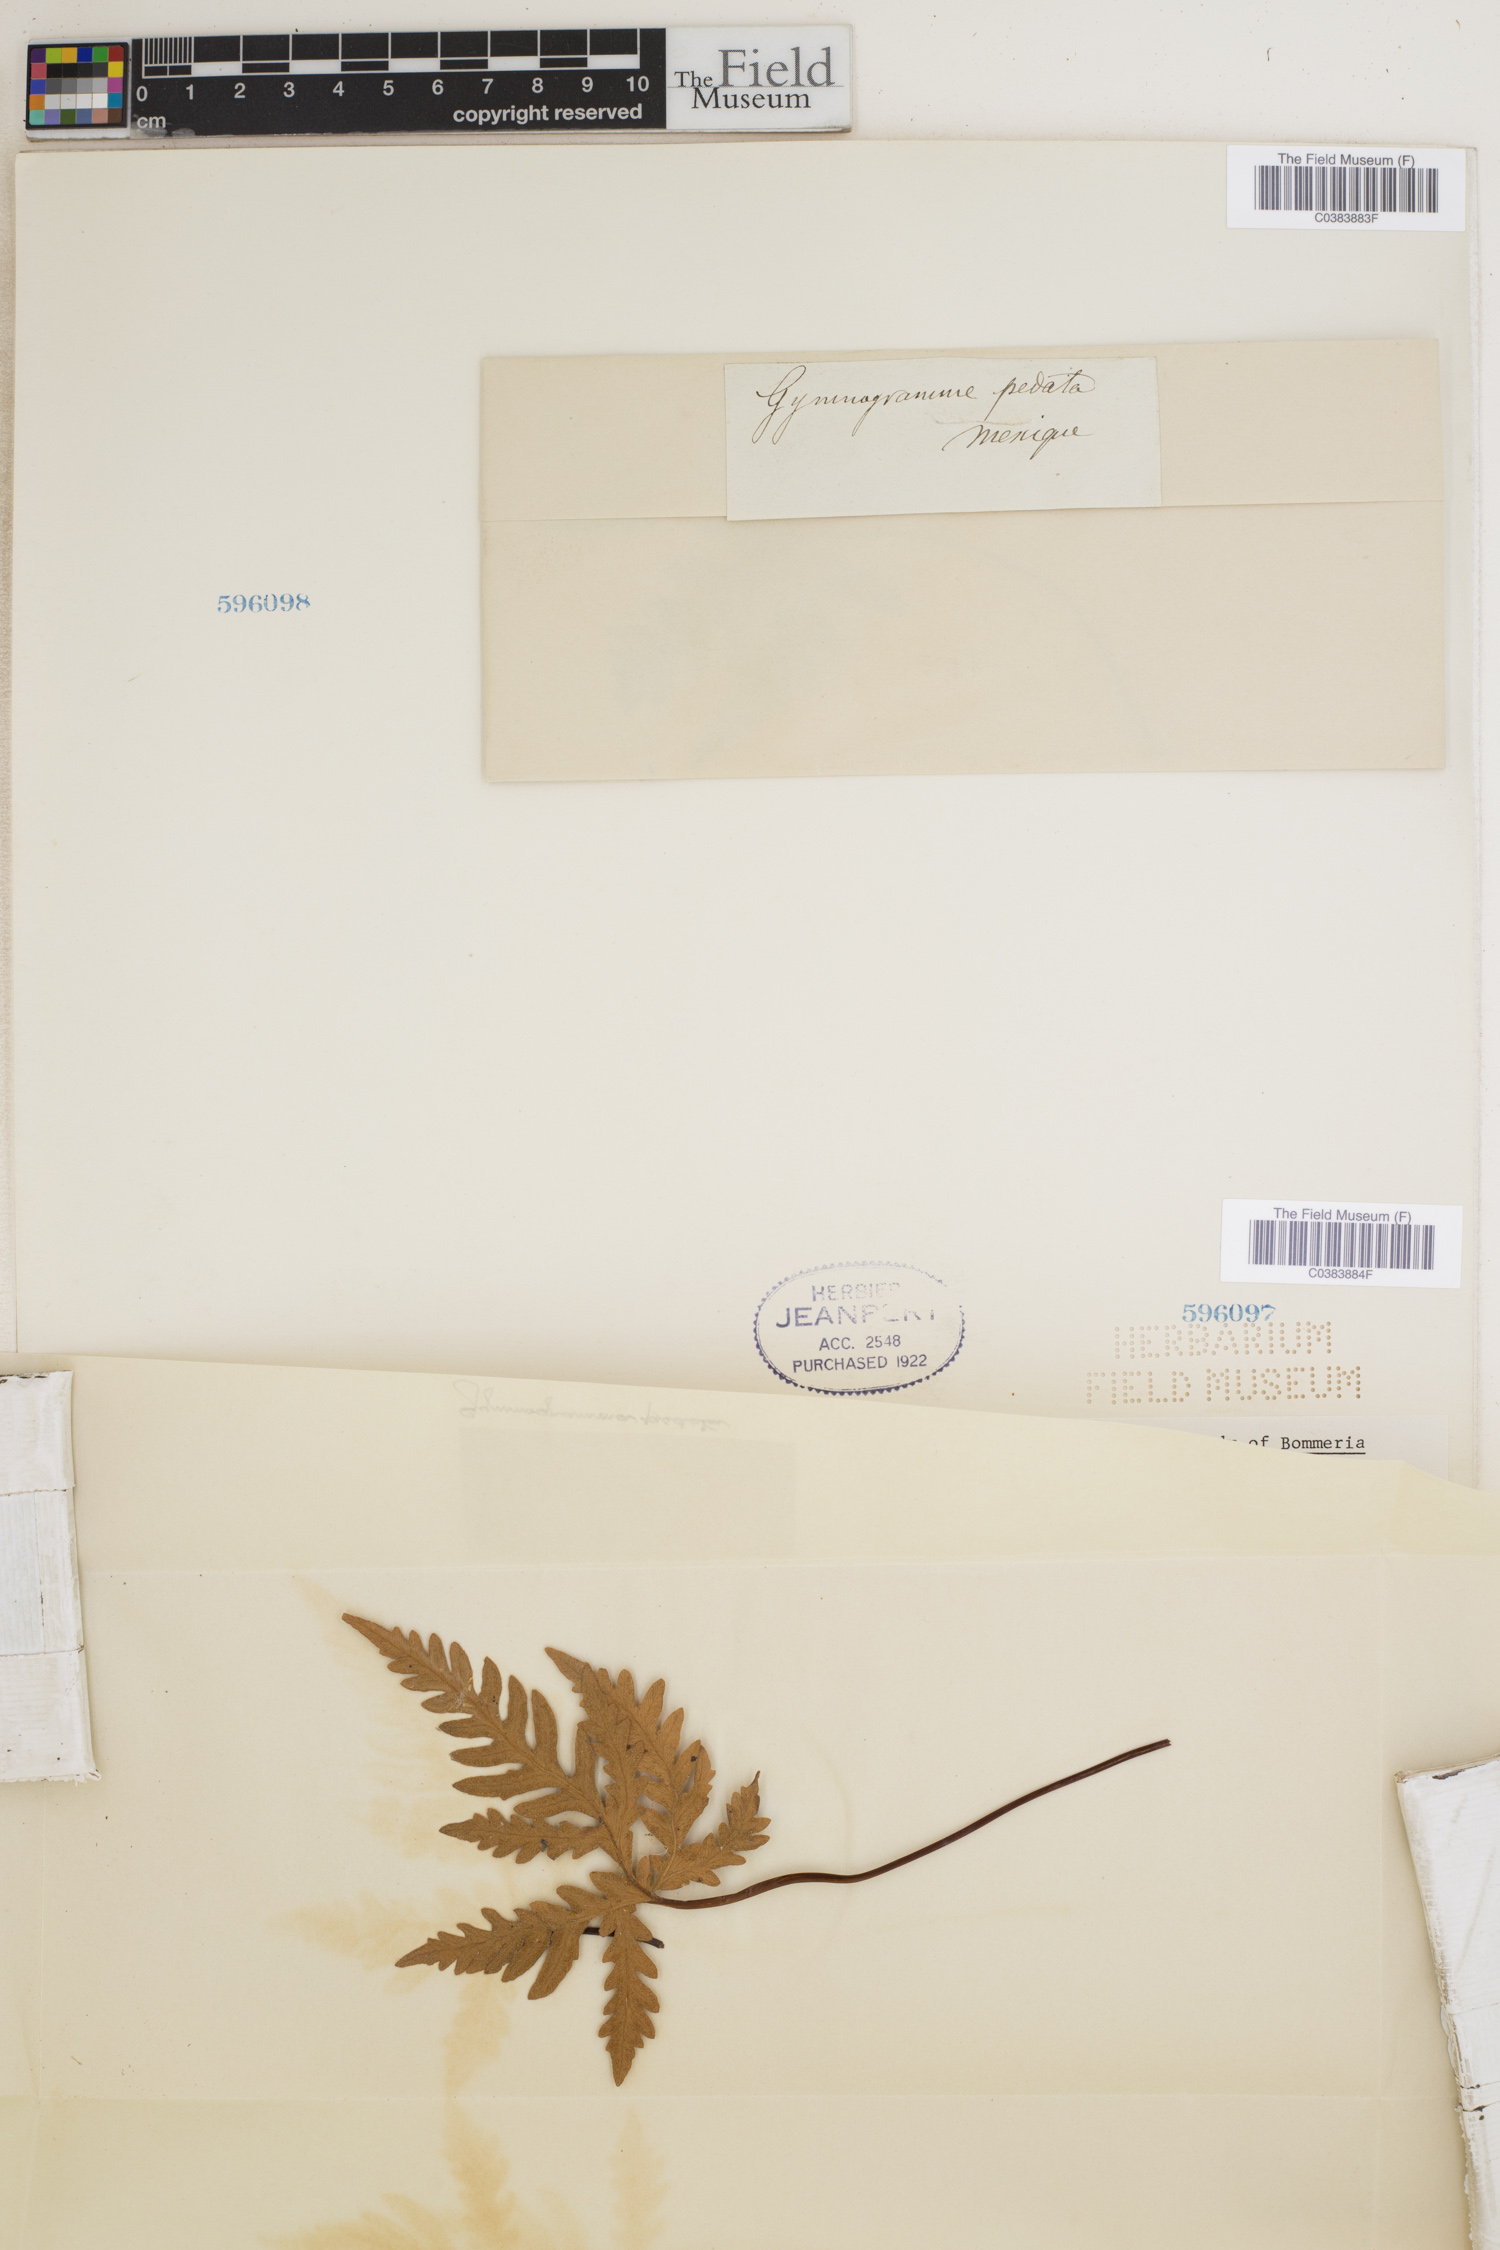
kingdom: Plantae
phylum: Tracheophyta
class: Polypodiopsida
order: Polypodiales
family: Pteridaceae
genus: Bommeria
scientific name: Bommeria pedata
